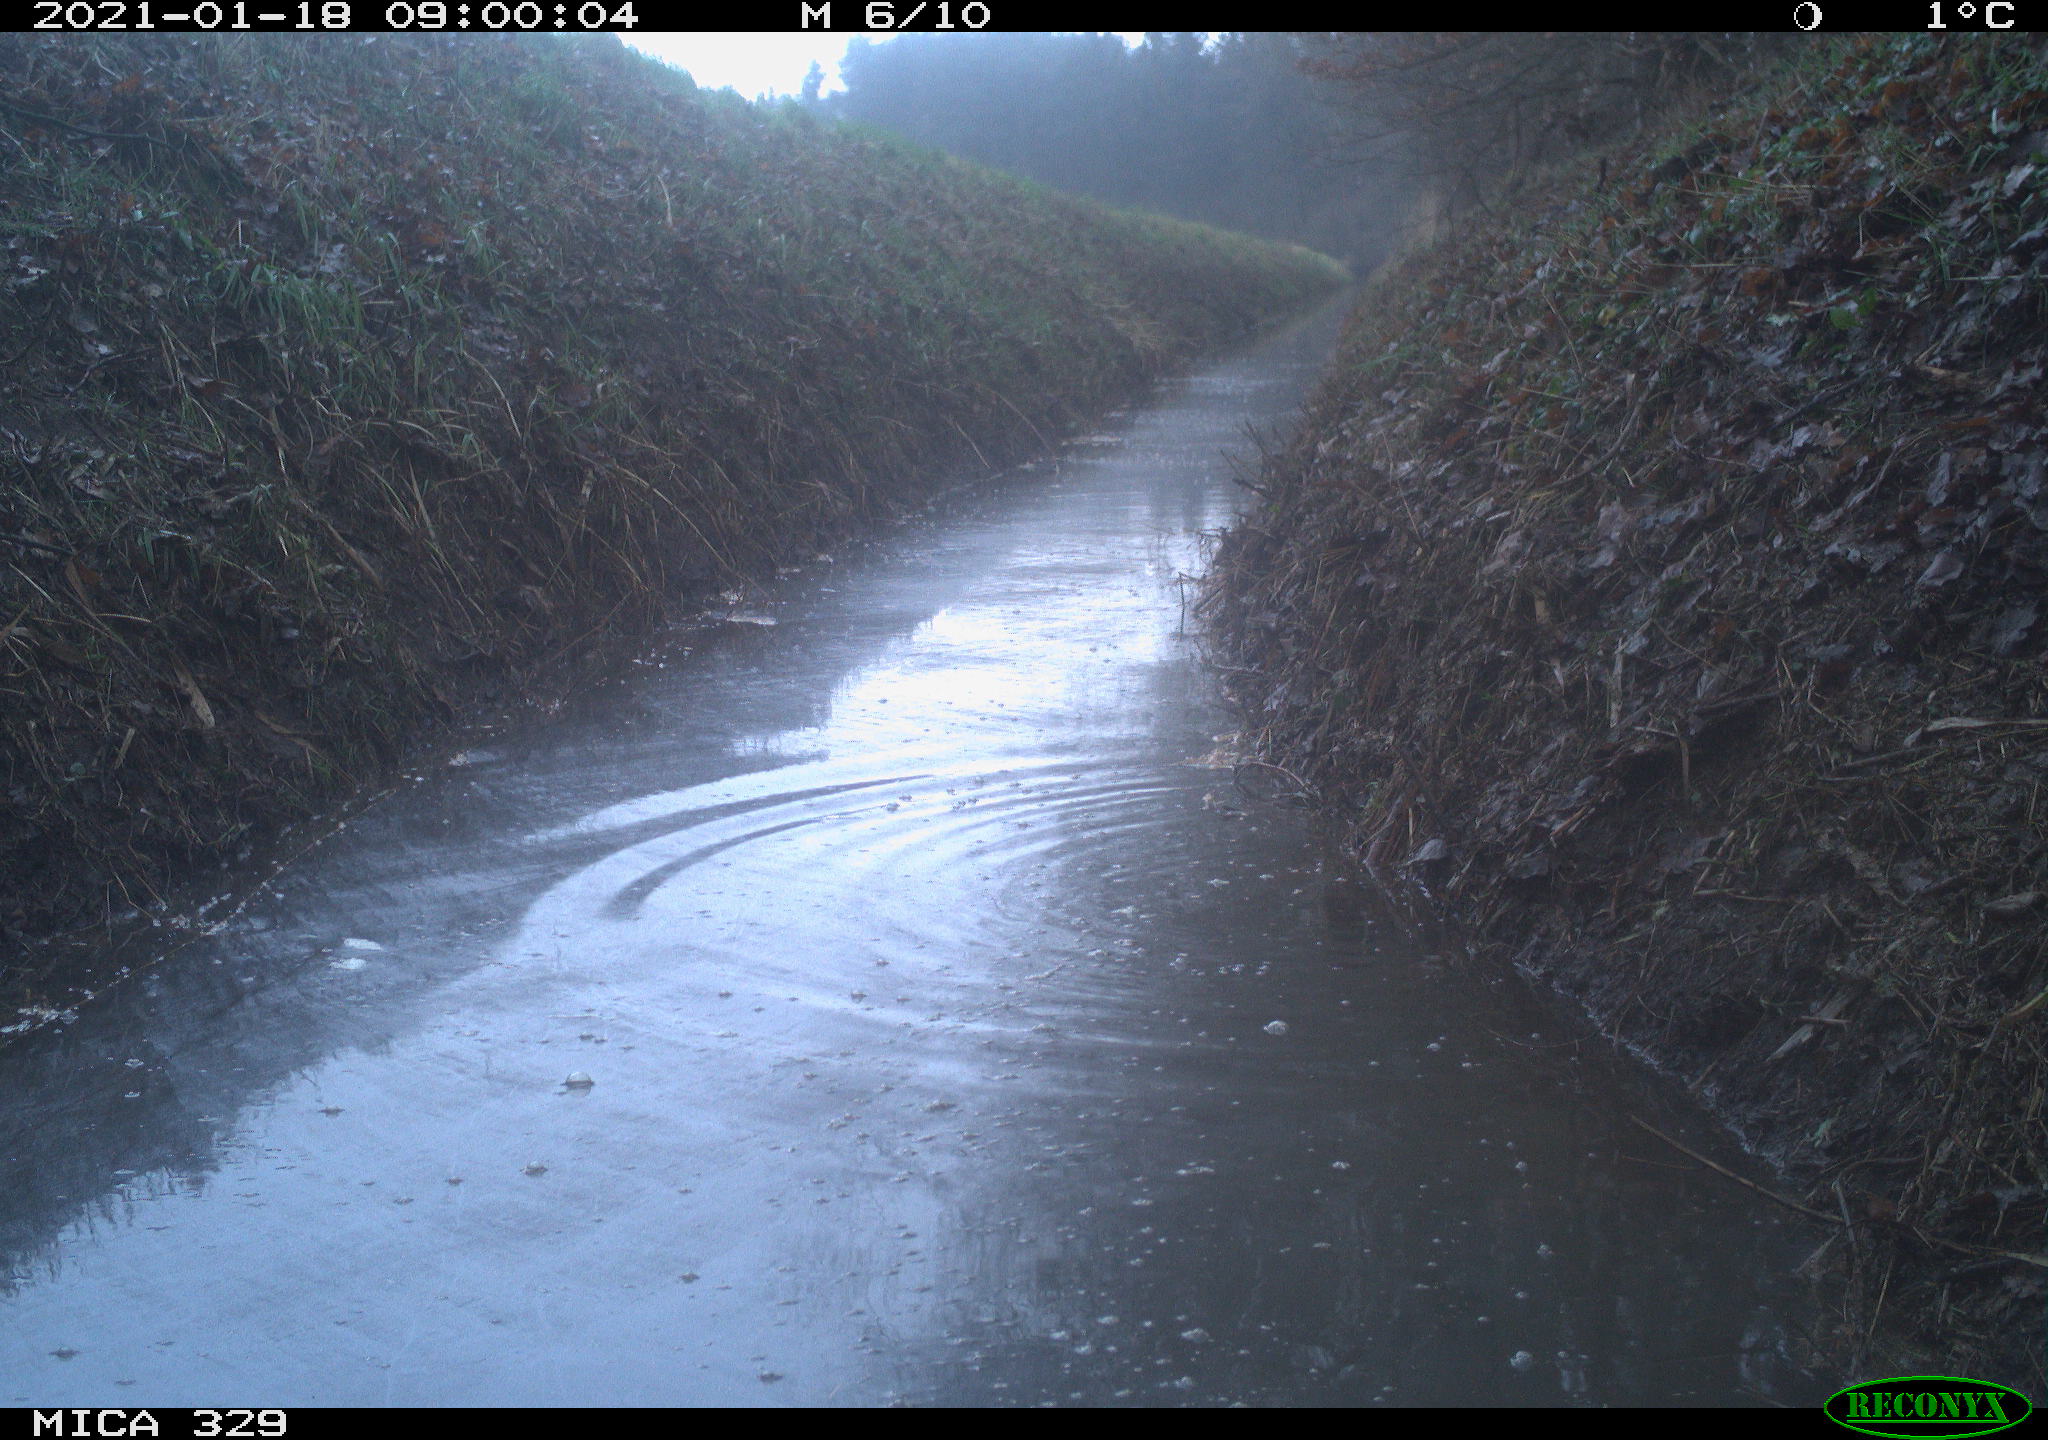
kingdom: Animalia
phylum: Chordata
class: Mammalia
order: Rodentia
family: Sciuridae
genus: Sciurus
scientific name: Sciurus vulgaris
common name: Eurasian red squirrel
